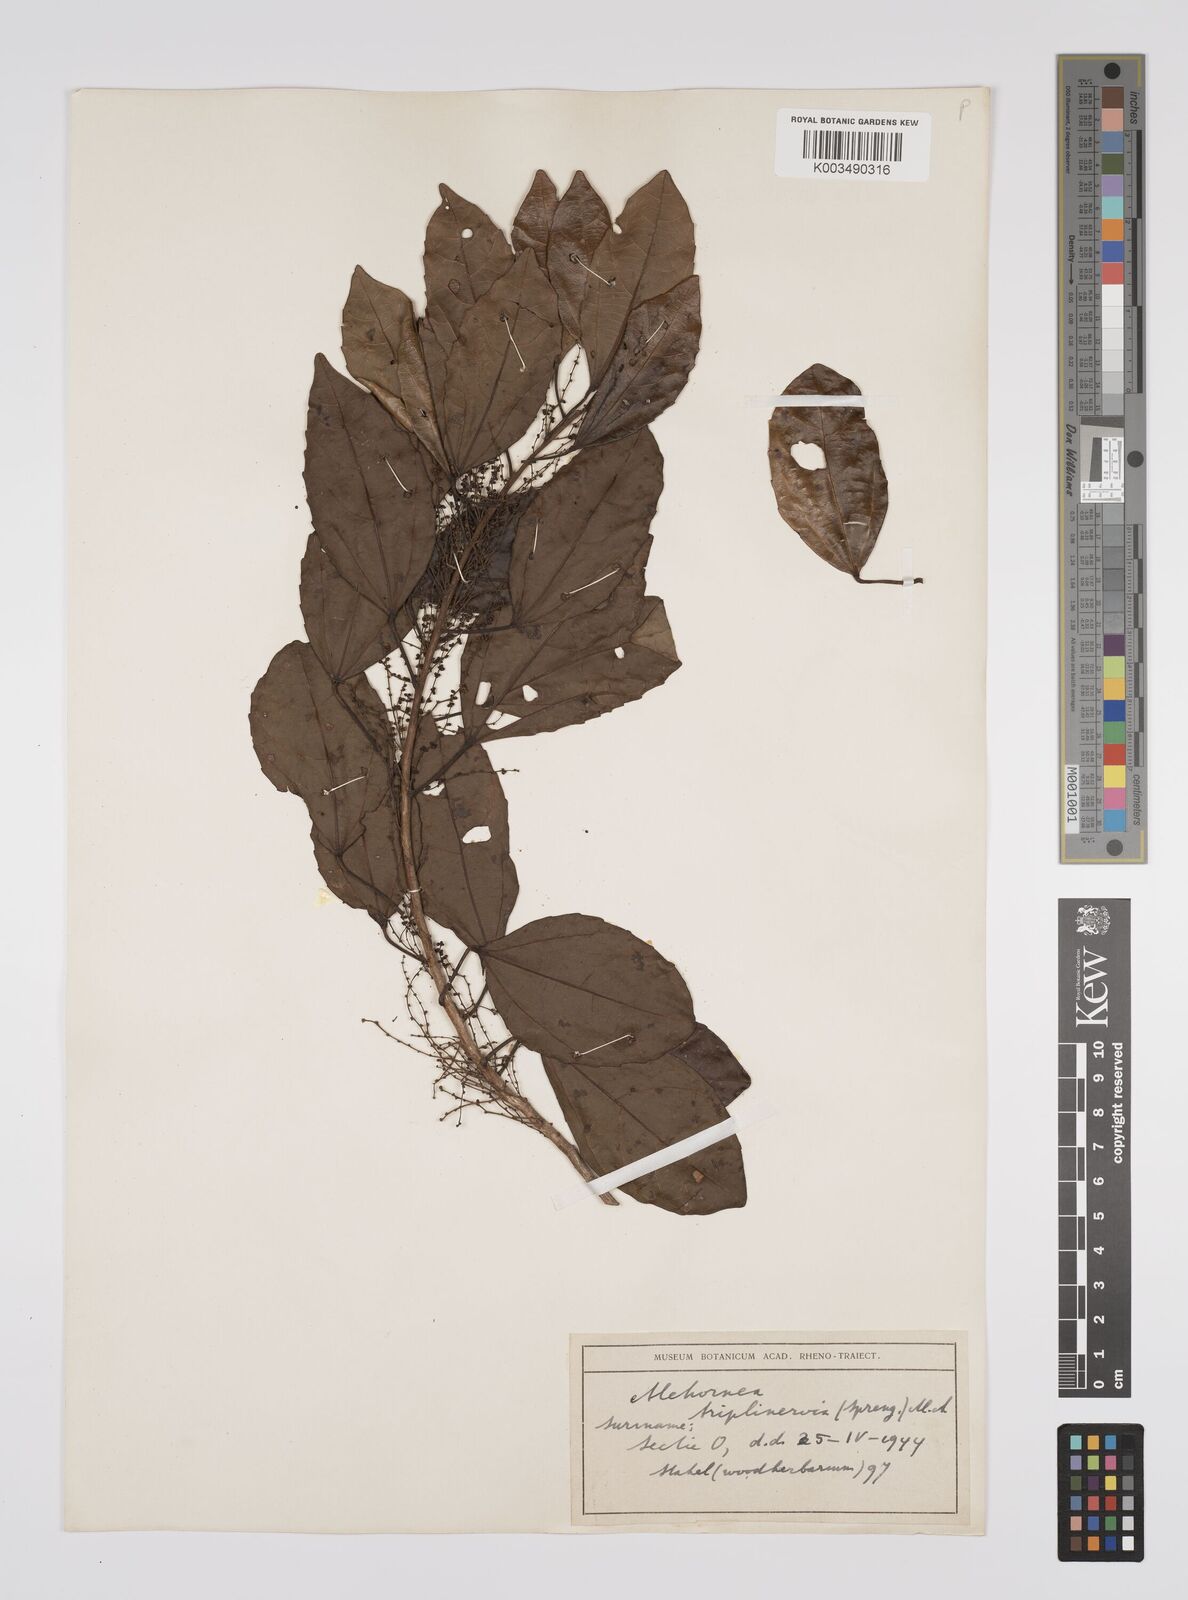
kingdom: Plantae
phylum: Tracheophyta
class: Magnoliopsida
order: Malpighiales
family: Euphorbiaceae
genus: Alchornea
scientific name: Alchornea triplinervia
